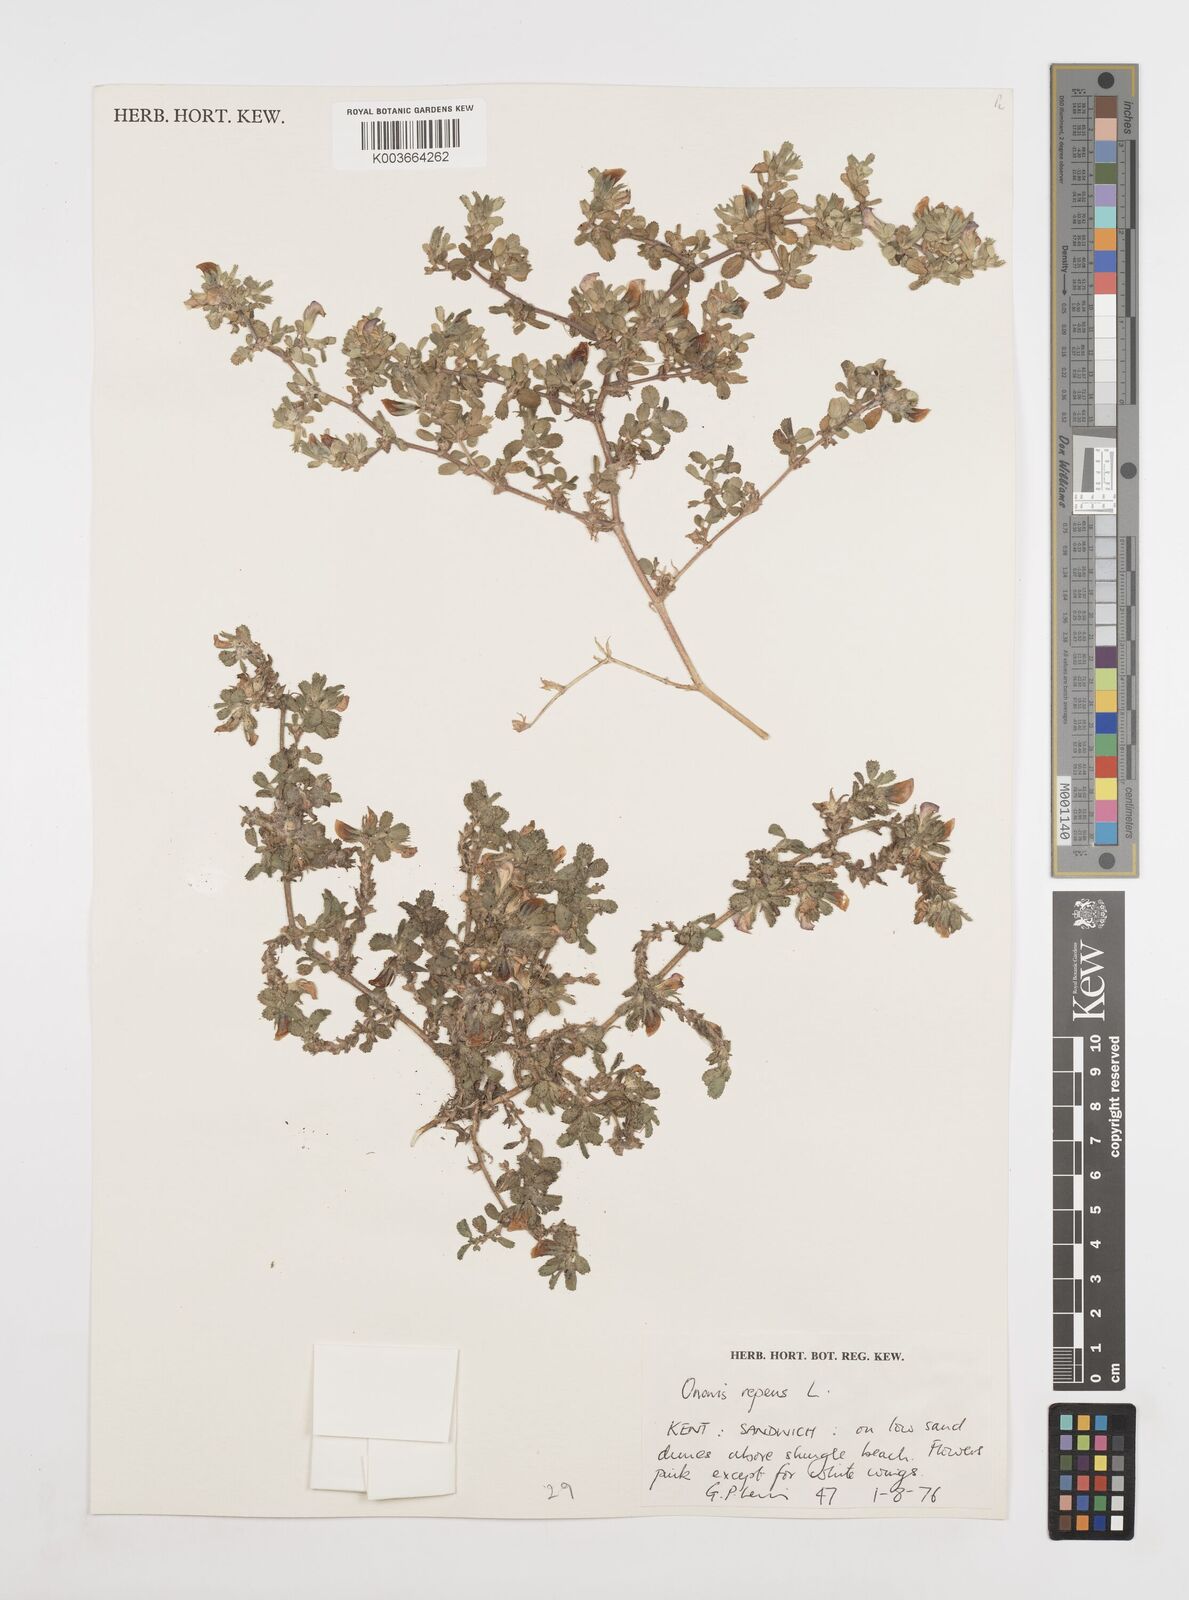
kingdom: Plantae
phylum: Tracheophyta
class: Magnoliopsida
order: Fabales
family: Fabaceae
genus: Ononis
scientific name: Ononis spinosa
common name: Spiny restharrow
